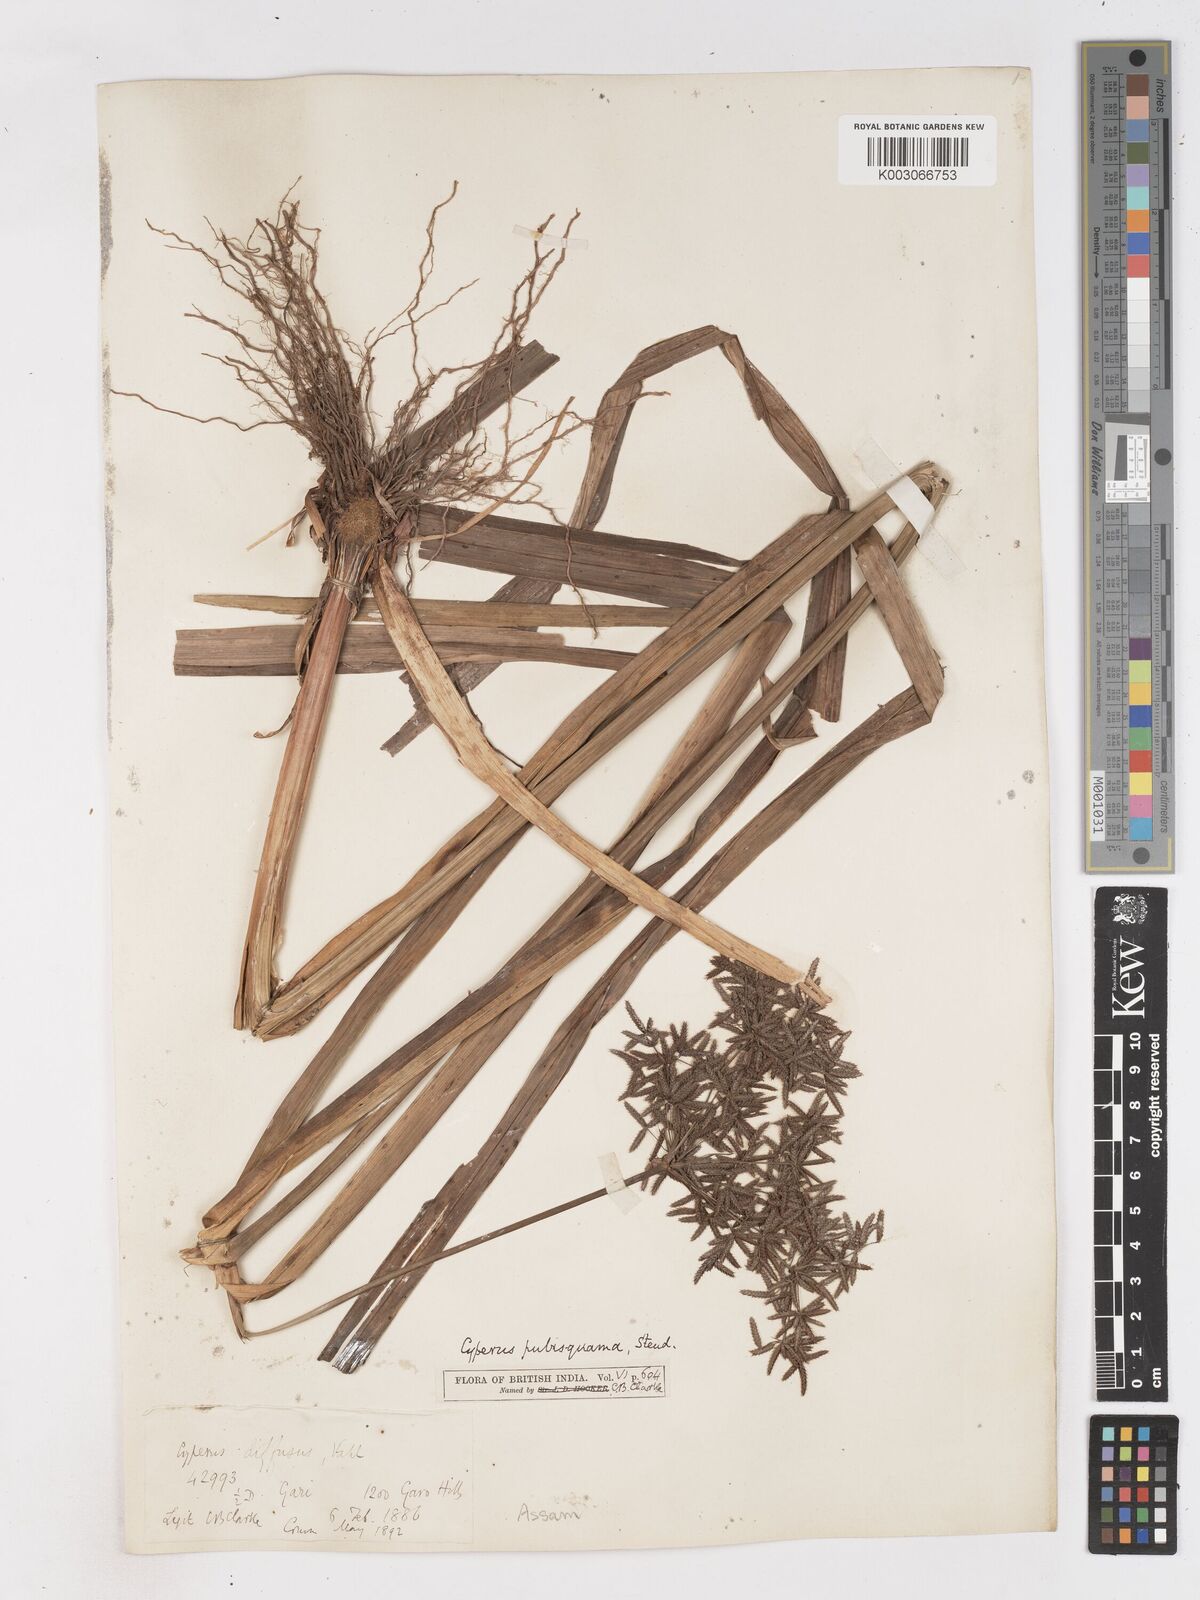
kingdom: Plantae
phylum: Tracheophyta
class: Liliopsida
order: Poales
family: Cyperaceae
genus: Cyperus
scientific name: Cyperus diffusus
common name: Dwarf umbrella grass
